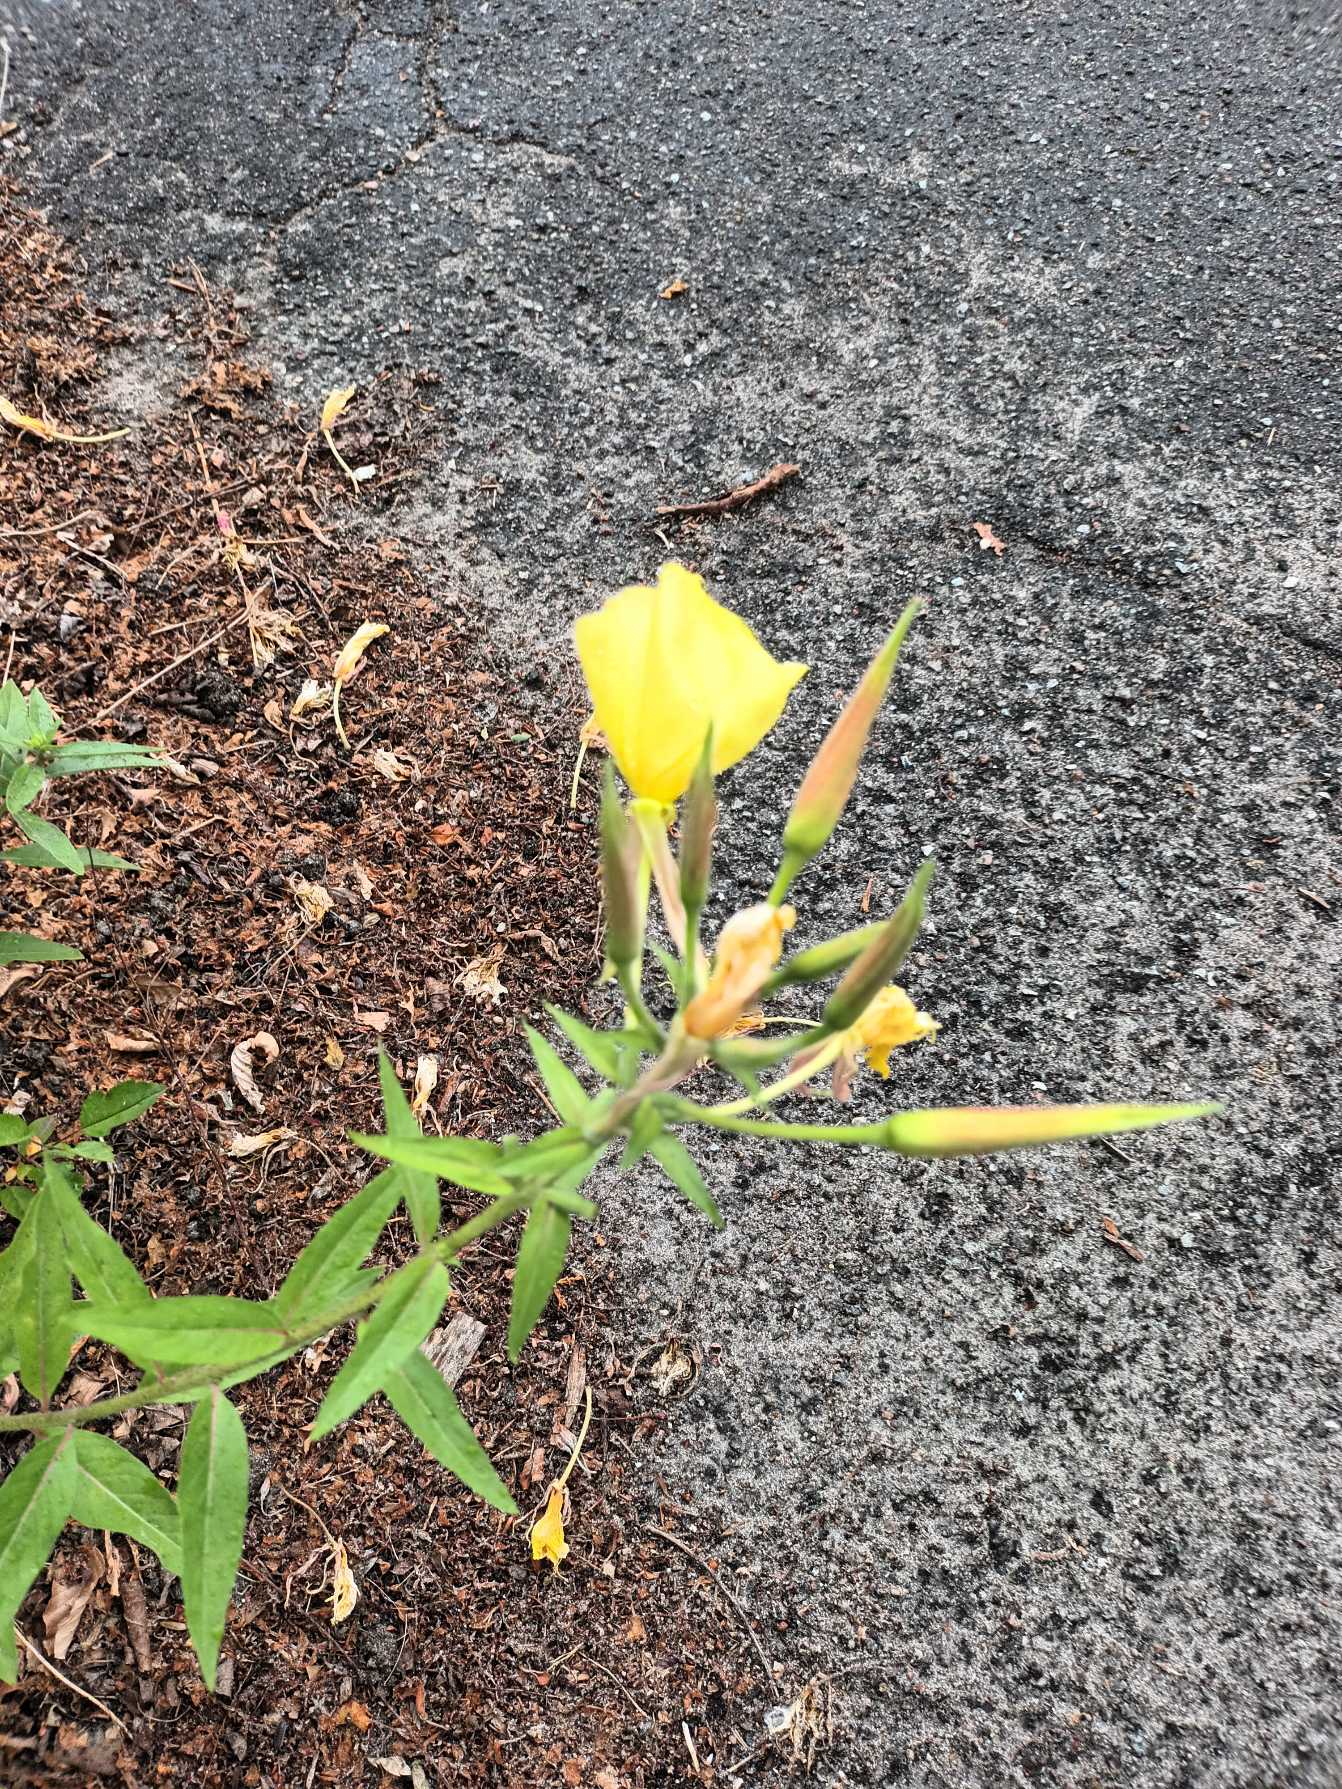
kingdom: Plantae
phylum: Tracheophyta
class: Magnoliopsida
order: Myrtales
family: Onagraceae
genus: Oenothera
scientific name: Oenothera glazioviana
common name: Kæmpe-natlys
